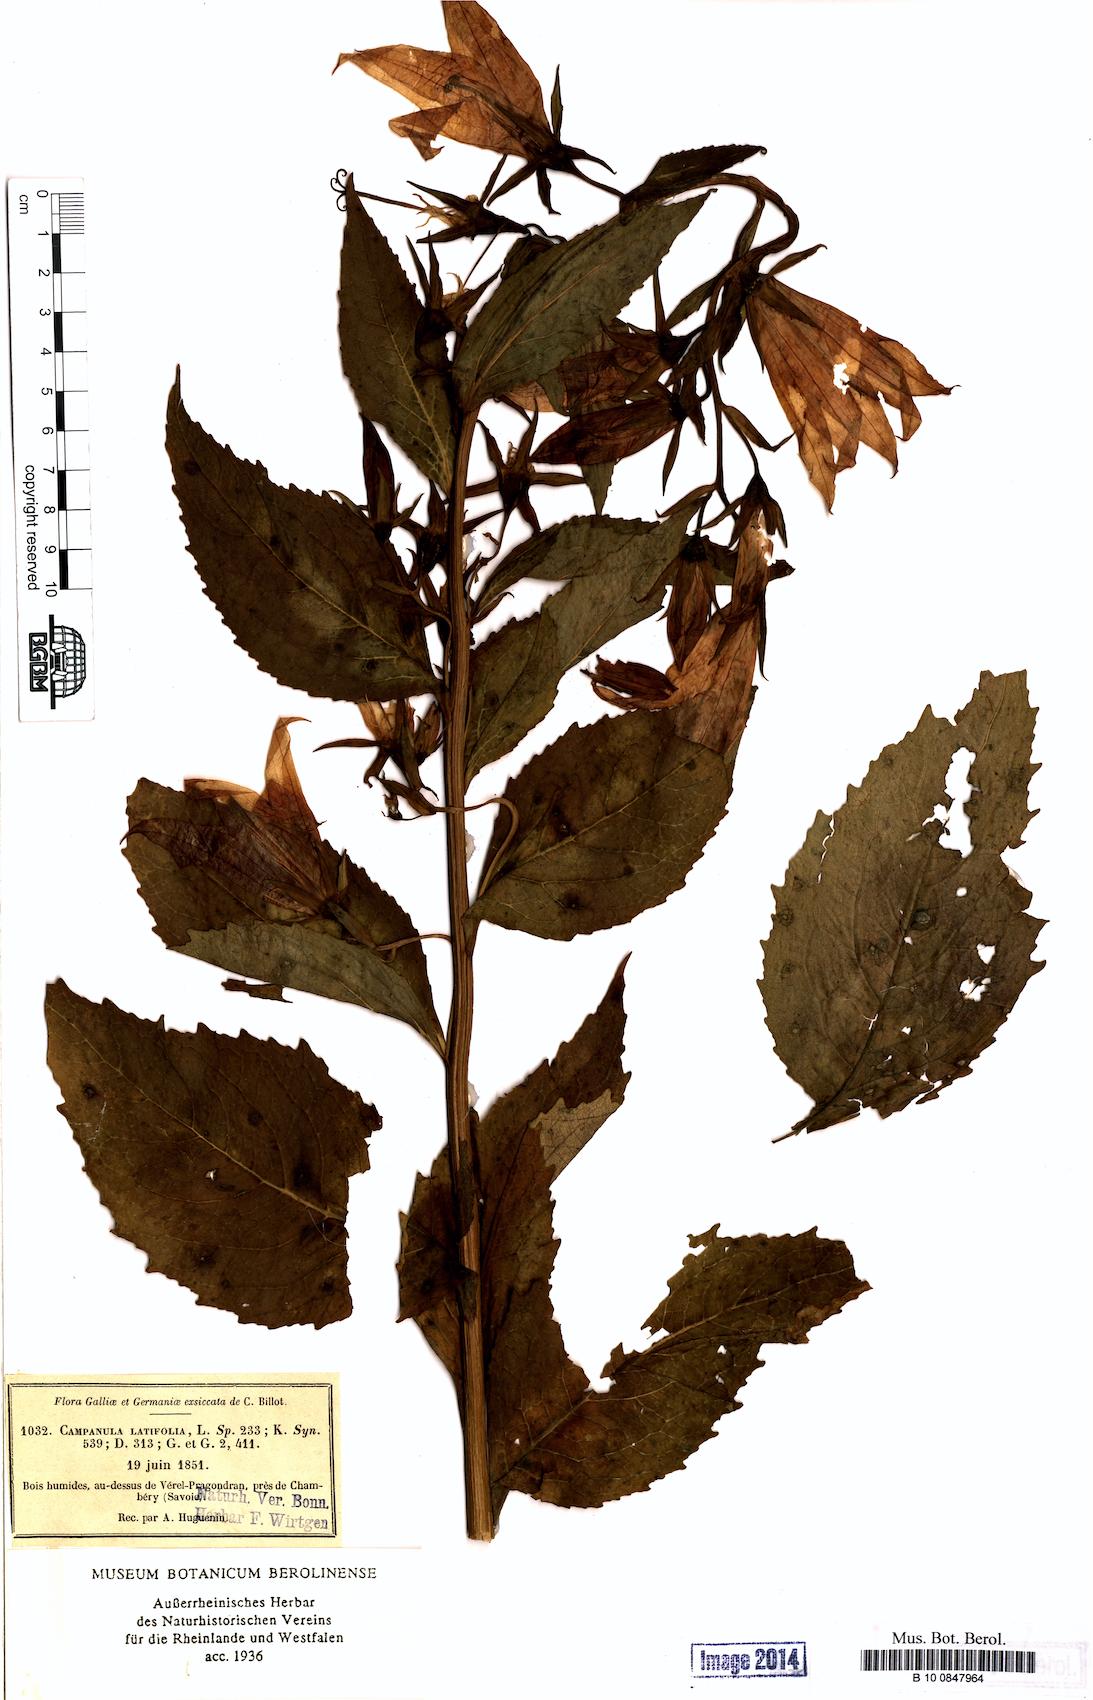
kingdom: Plantae
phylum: Tracheophyta
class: Magnoliopsida
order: Asterales
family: Campanulaceae
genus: Campanula
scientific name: Campanula latifolia
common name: Giant bellflower
